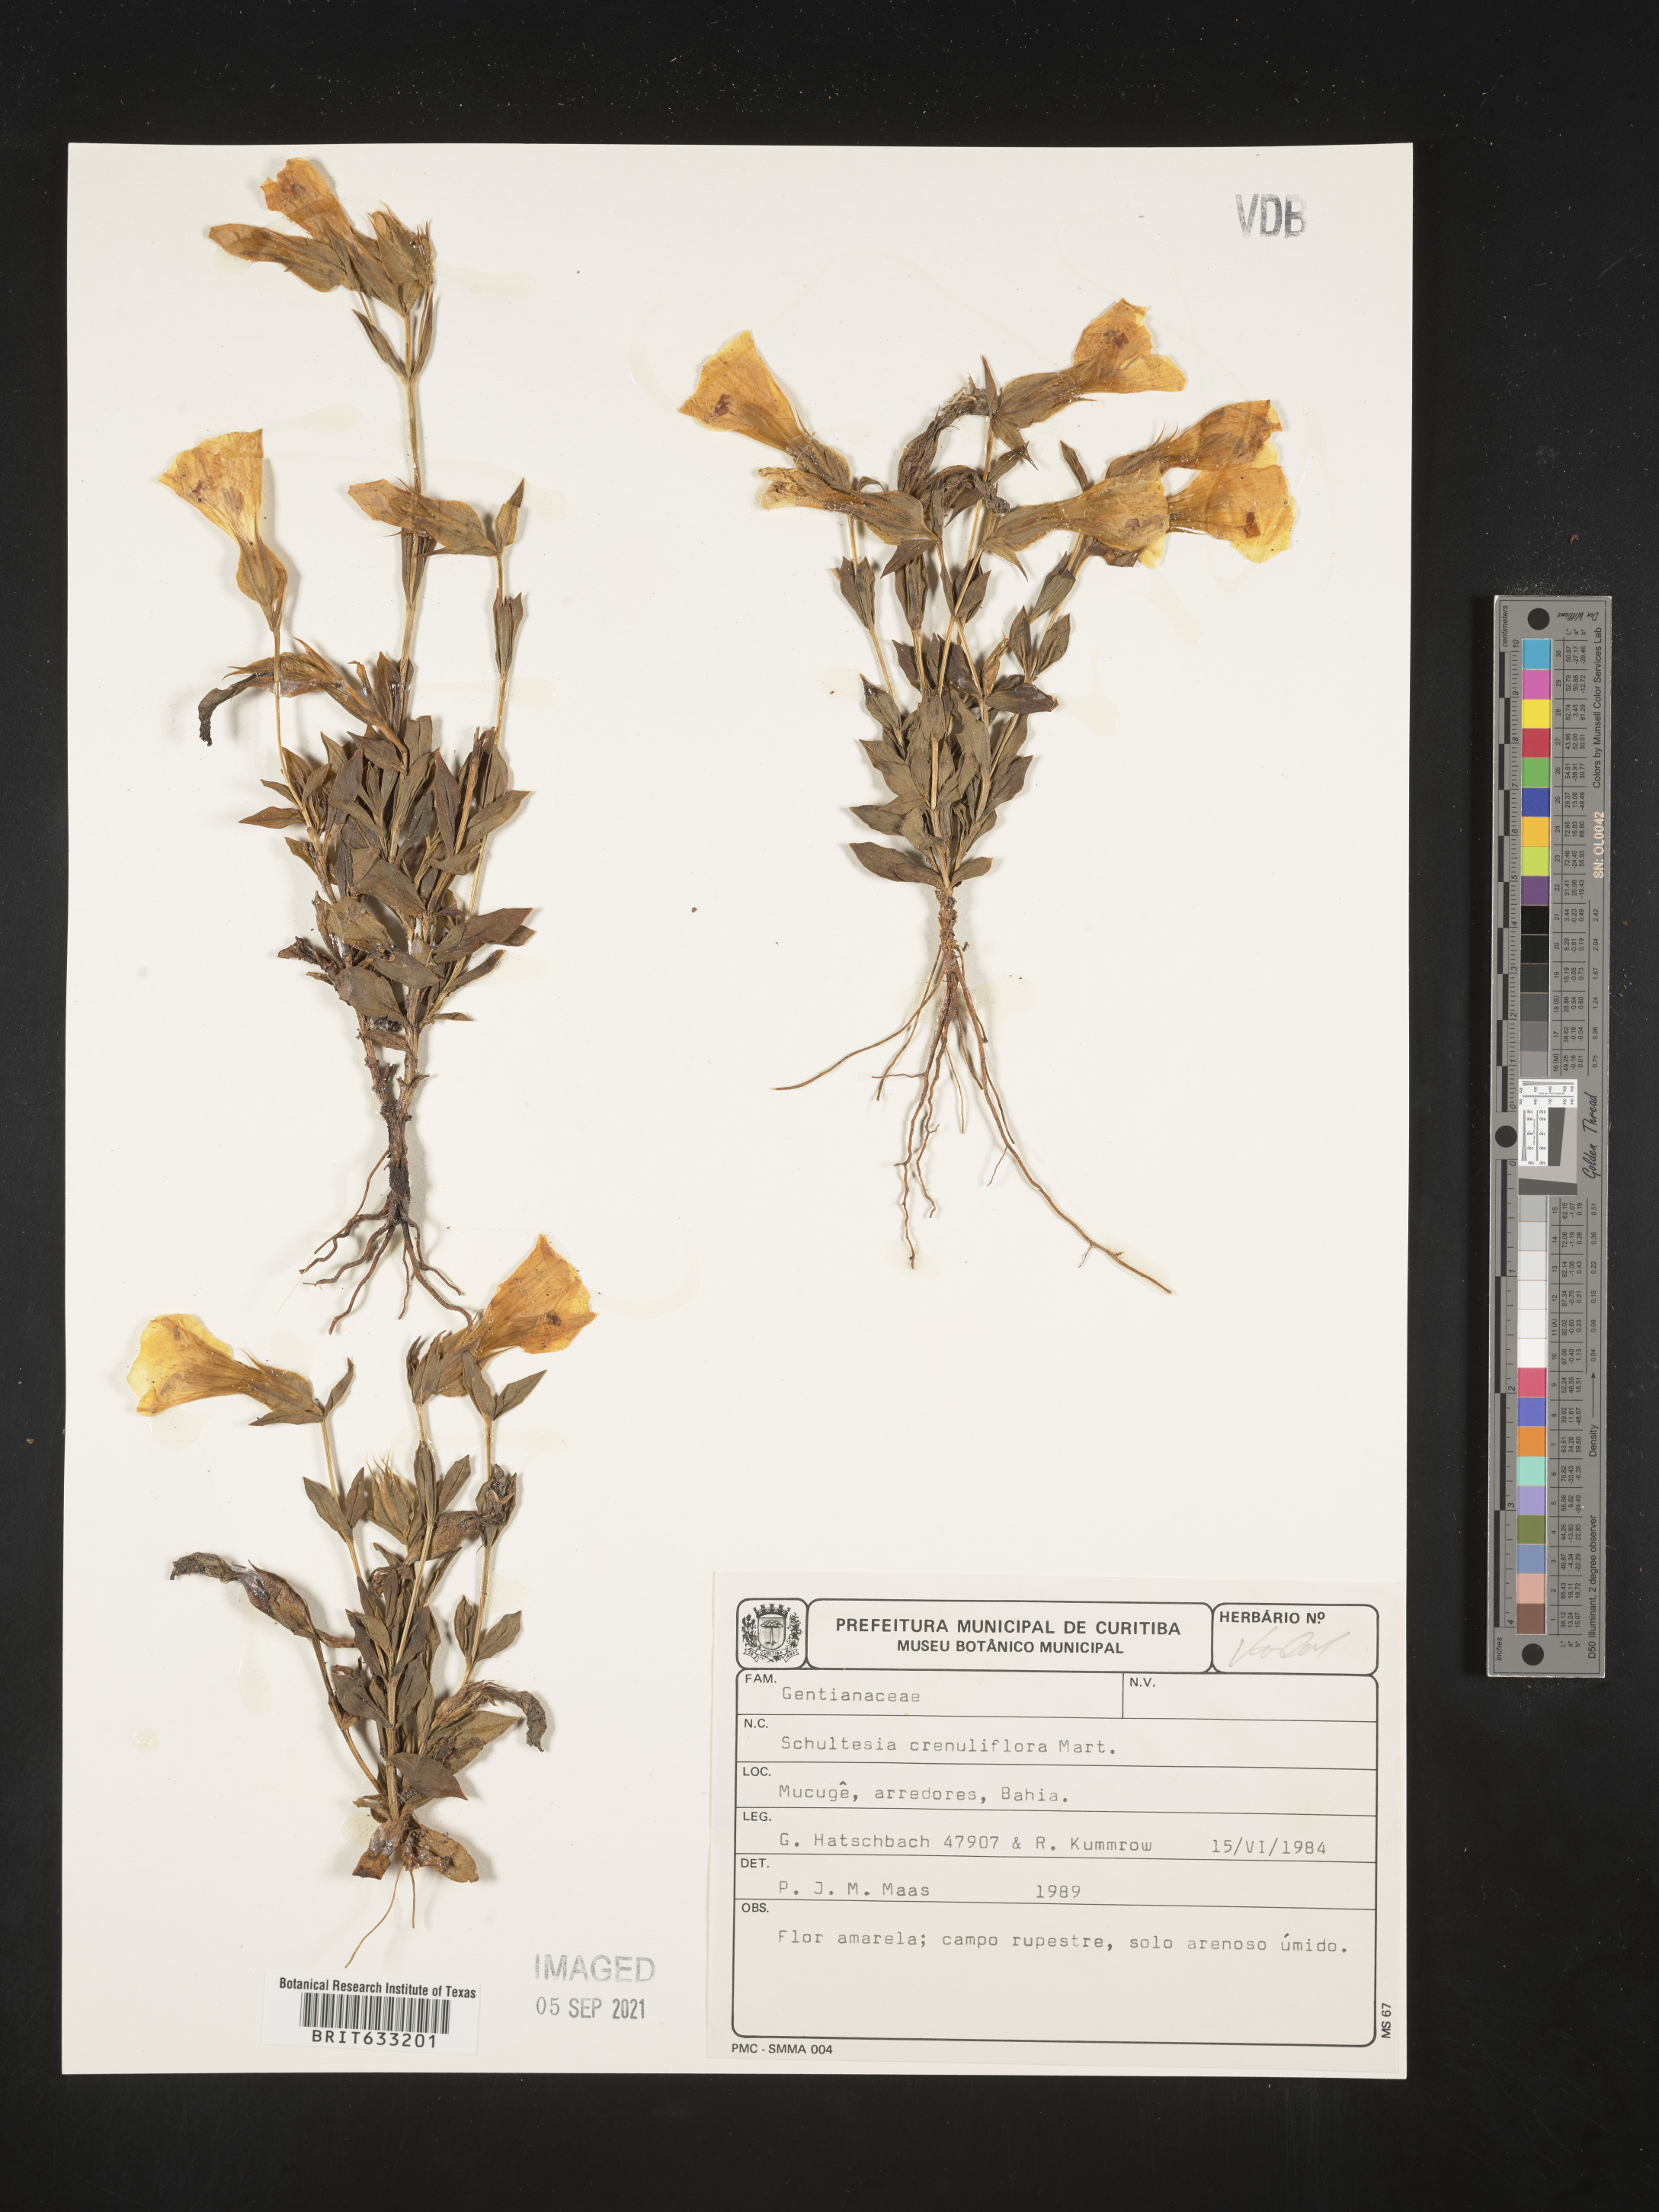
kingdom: Plantae
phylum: Tracheophyta
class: Magnoliopsida
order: Gentianales
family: Gentianaceae
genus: Schultesia
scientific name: Schultesia
